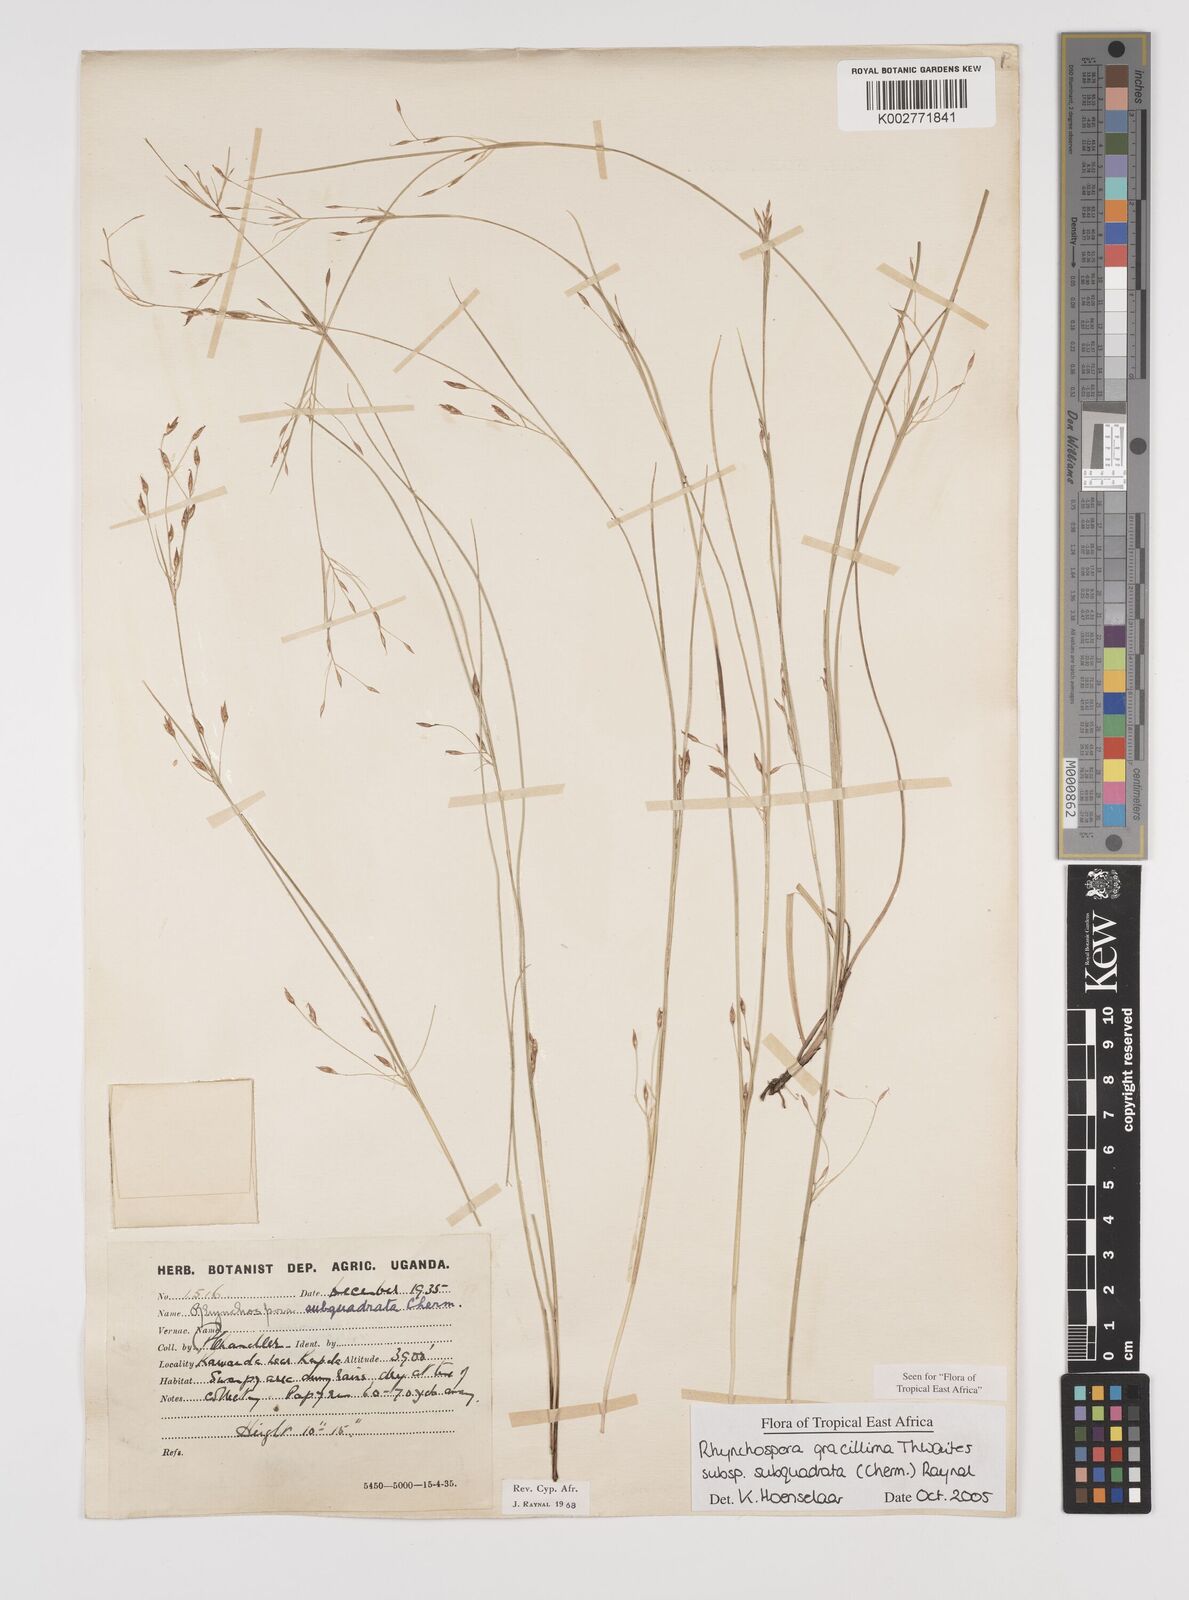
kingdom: Plantae
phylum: Tracheophyta
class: Liliopsida
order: Poales
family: Cyperaceae
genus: Rhynchospora
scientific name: Rhynchospora gracillima
